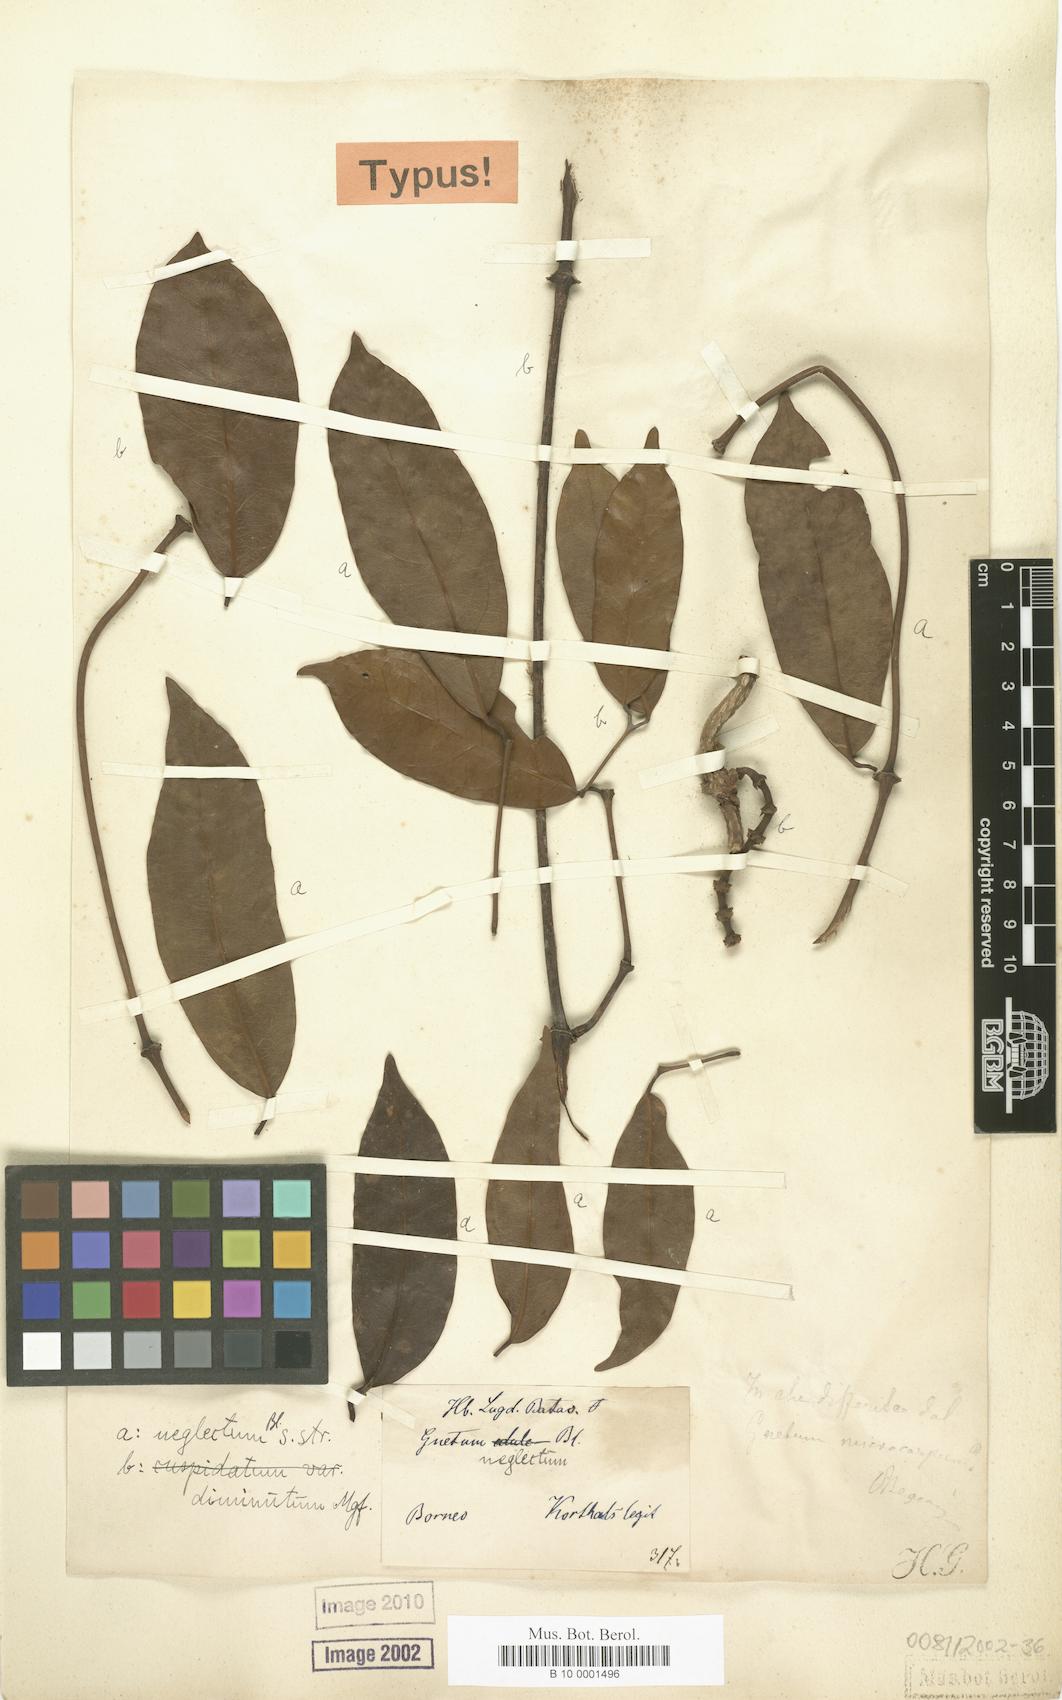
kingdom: Plantae
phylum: Tracheophyta
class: Gnetopsida
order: Gnetales
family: Gnetaceae
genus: Gnetum
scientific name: Gnetum neglectum
